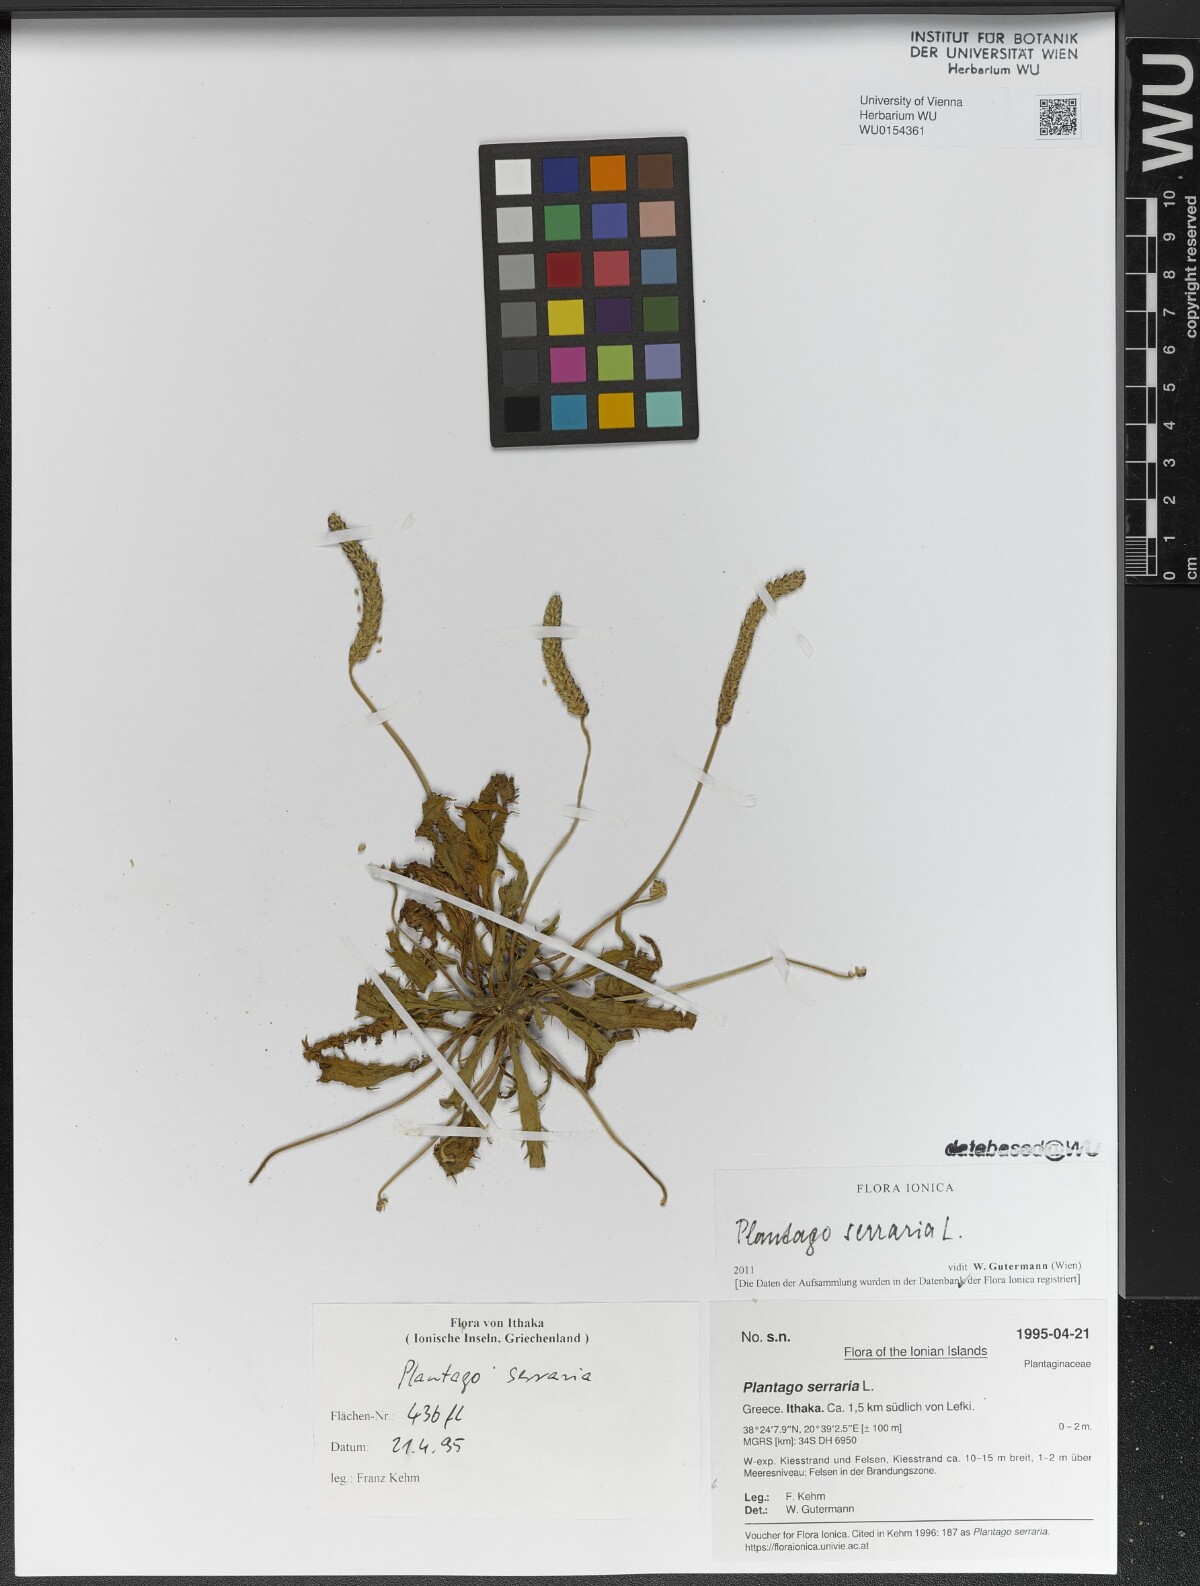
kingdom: Plantae
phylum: Tracheophyta
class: Magnoliopsida
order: Lamiales
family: Plantaginaceae
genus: Plantago
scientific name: Plantago serraria
